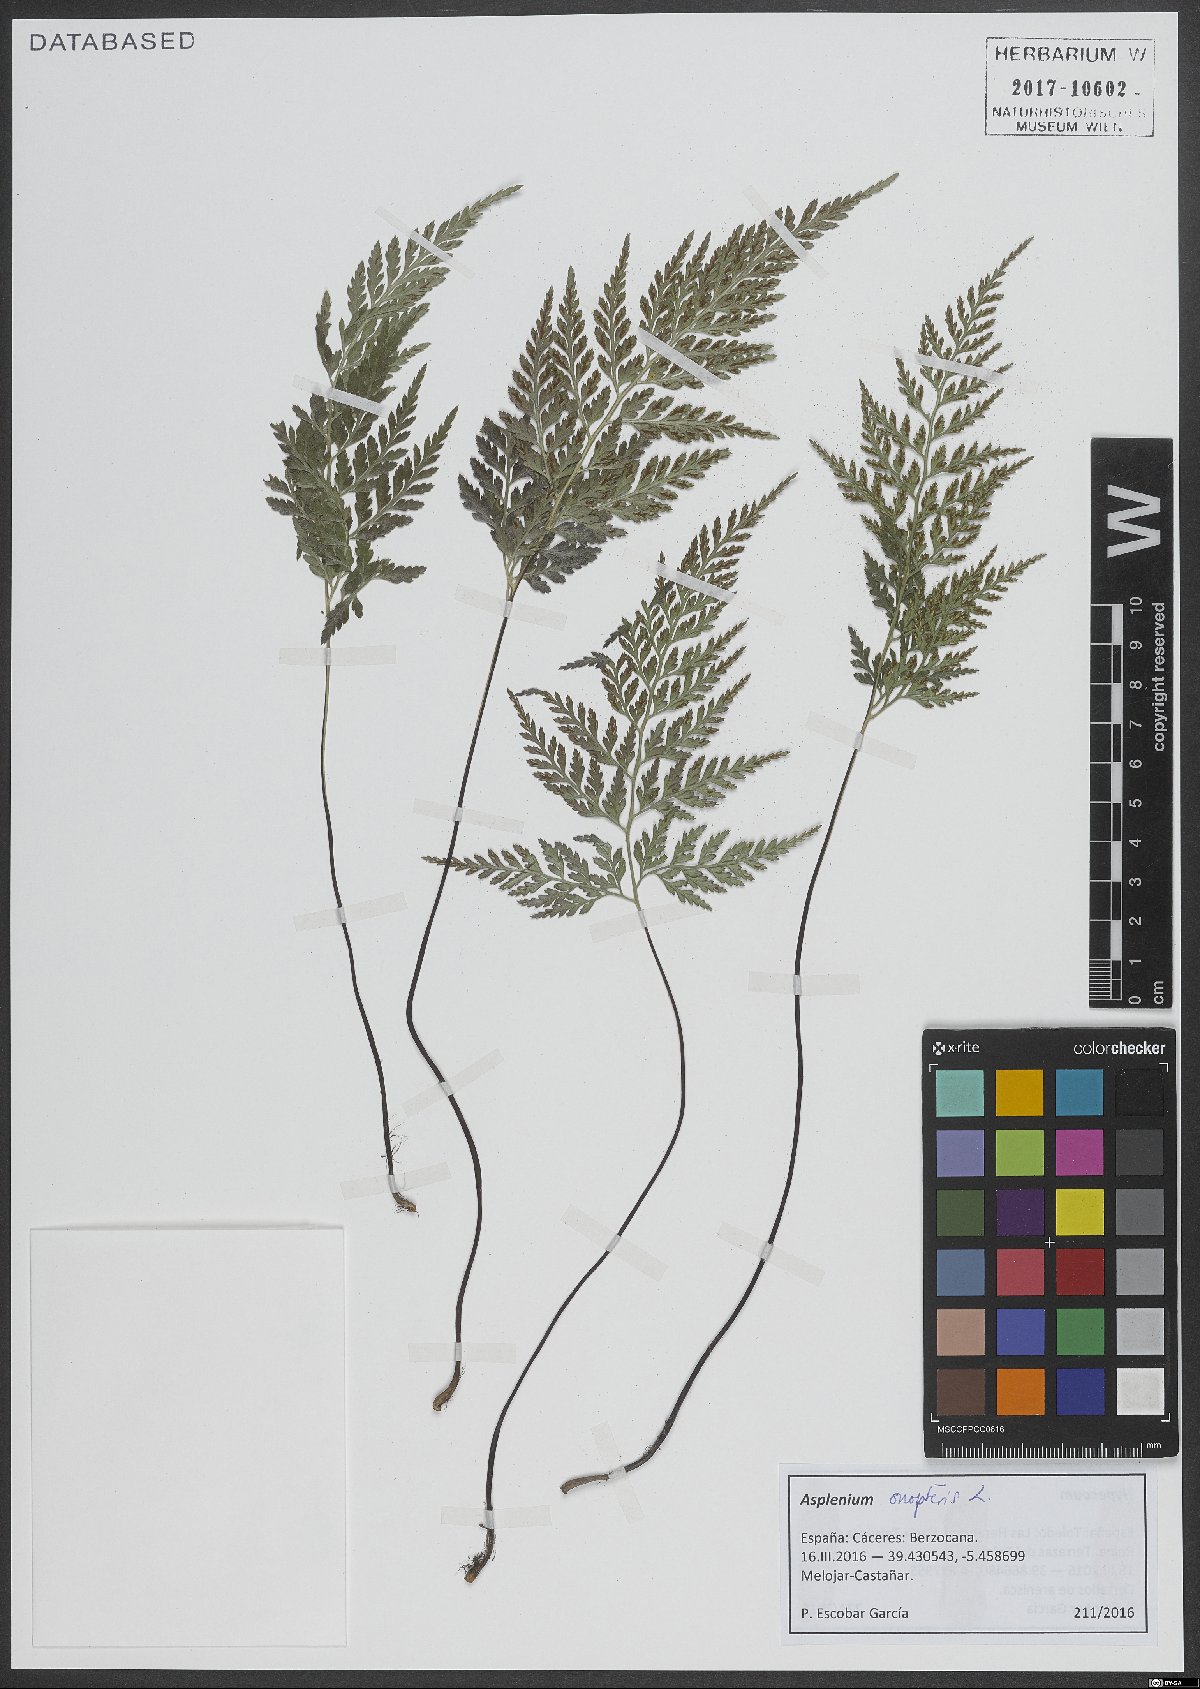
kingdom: Plantae
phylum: Tracheophyta
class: Polypodiopsida
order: Polypodiales
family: Aspleniaceae
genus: Asplenium
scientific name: Asplenium onopteris
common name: Irish spleenwort
